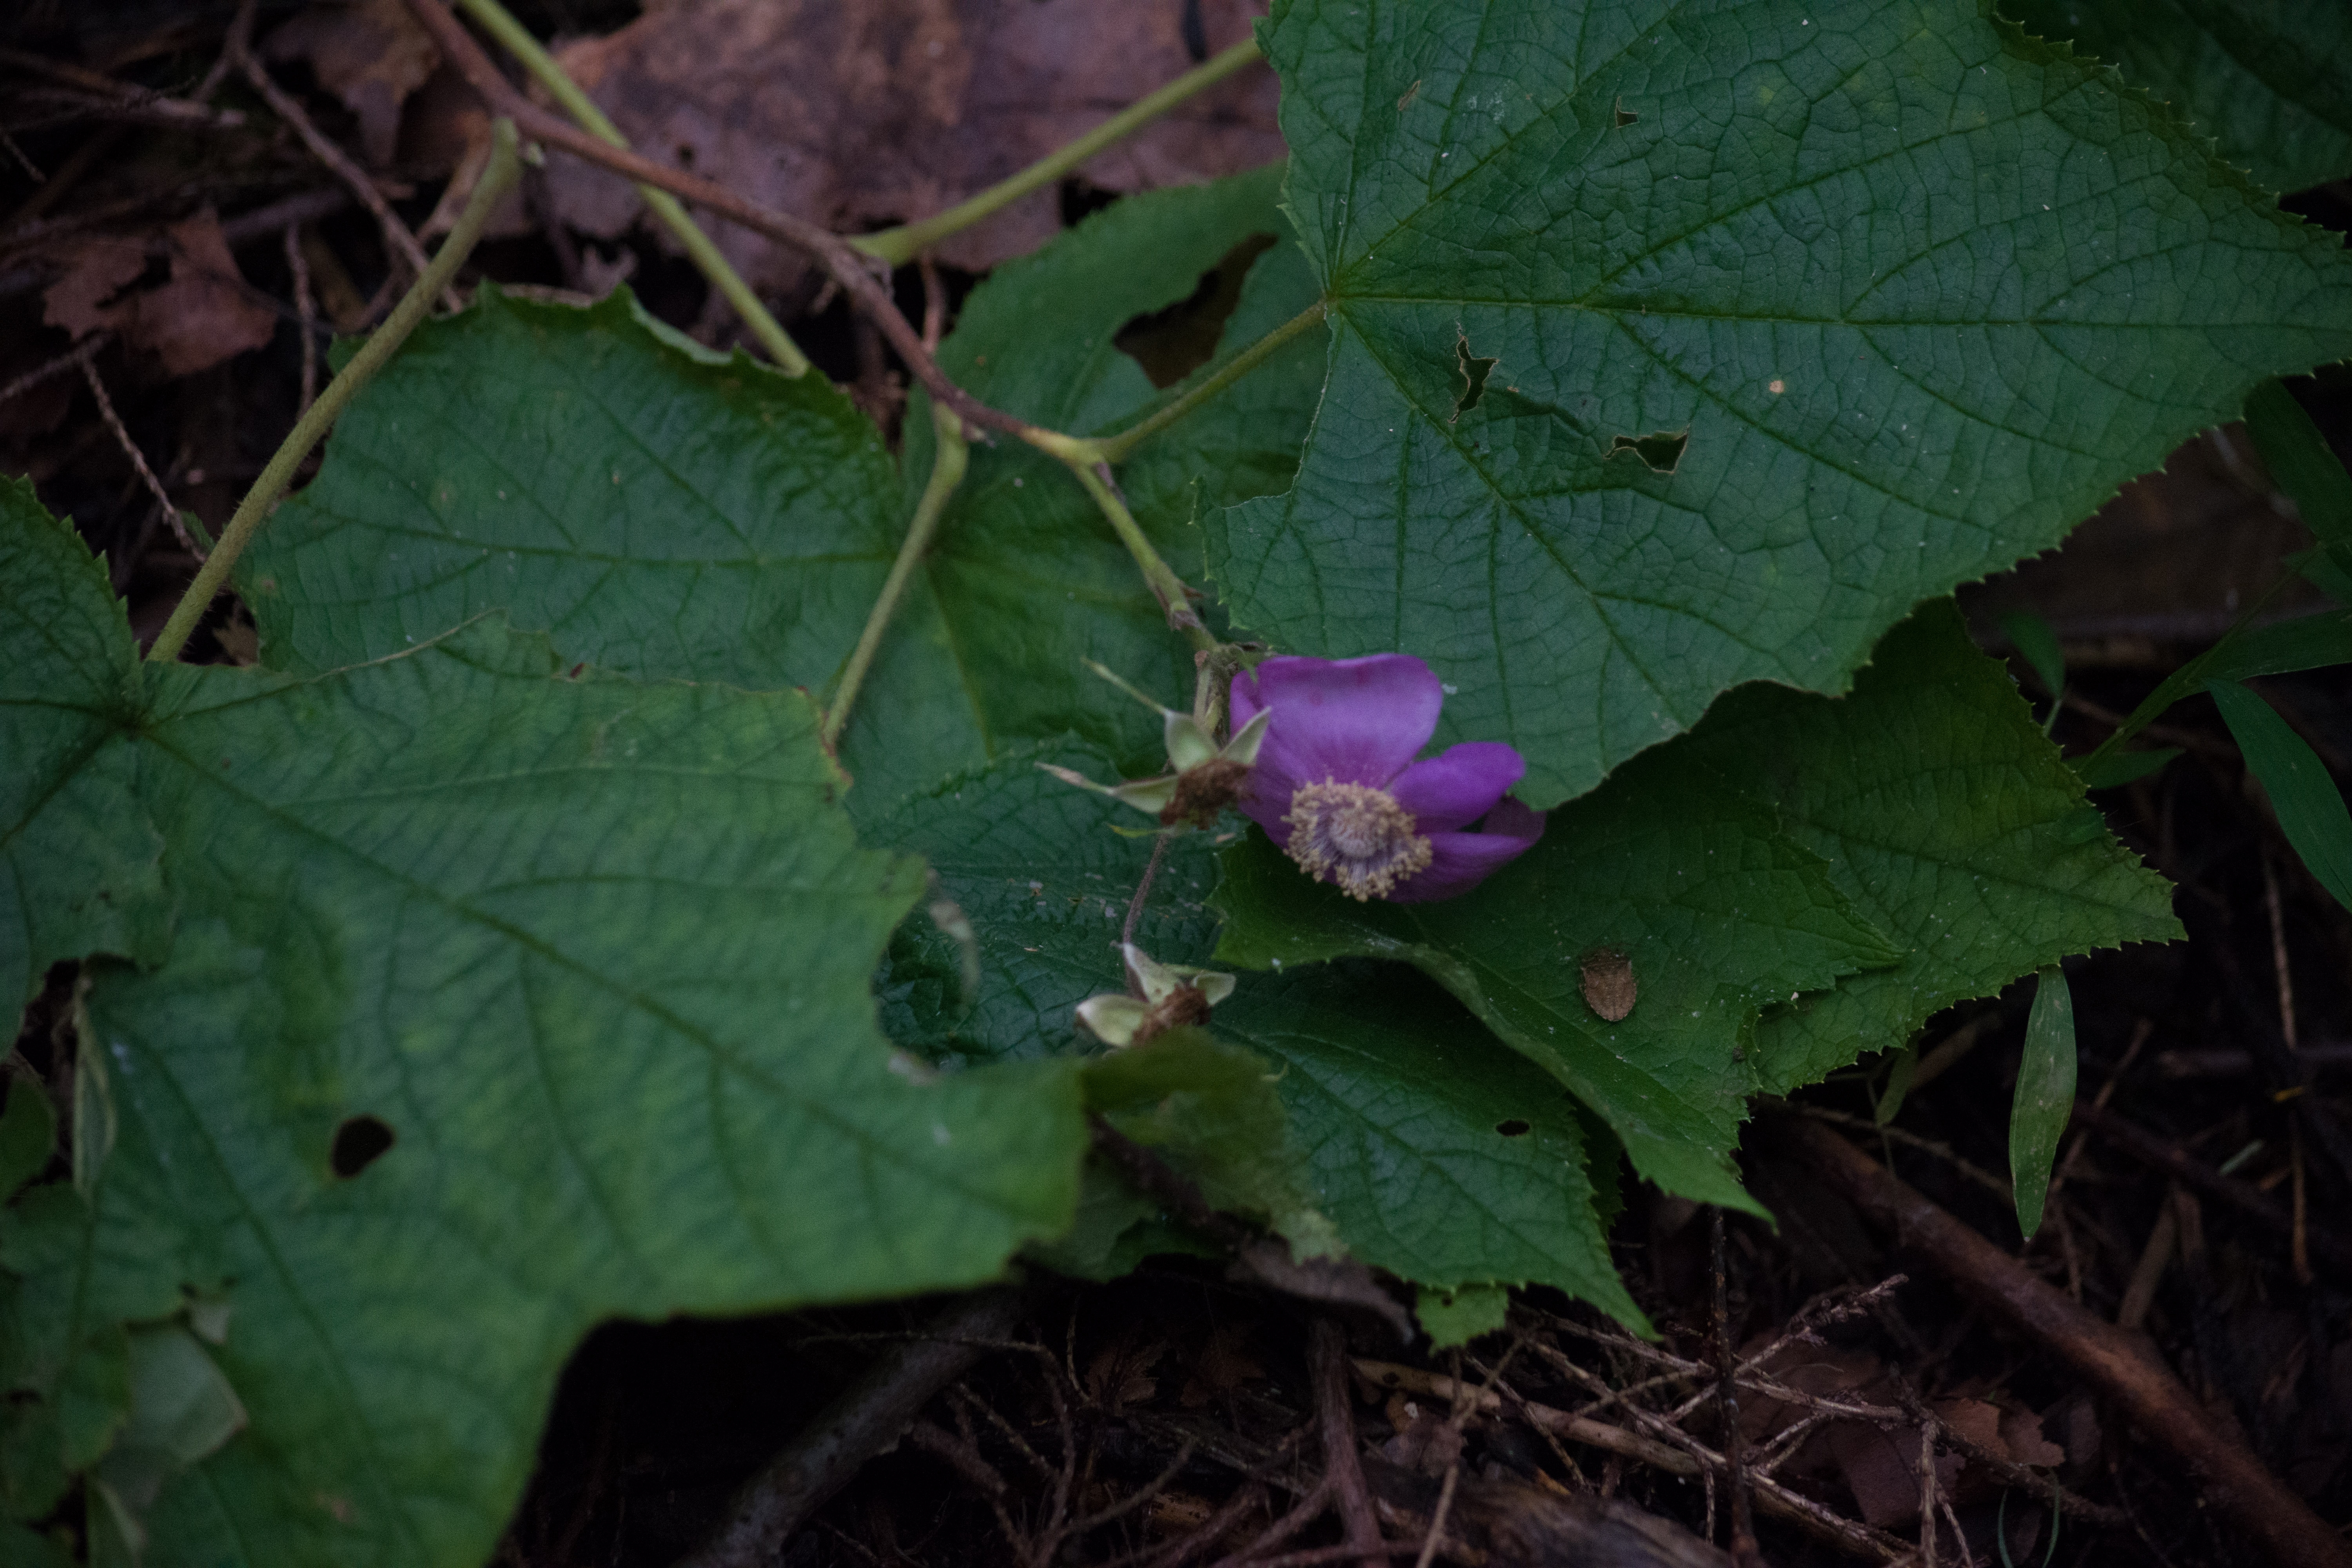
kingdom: Plantae
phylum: Tracheophyta
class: Magnoliopsida
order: Rosales
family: Rosaceae
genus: Rubus
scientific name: Rubus odoratus
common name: Purple-flowered raspberry
